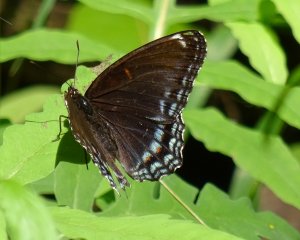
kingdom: Animalia
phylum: Arthropoda
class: Insecta
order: Lepidoptera
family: Nymphalidae
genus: Limenitis
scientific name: Limenitis astyanax
